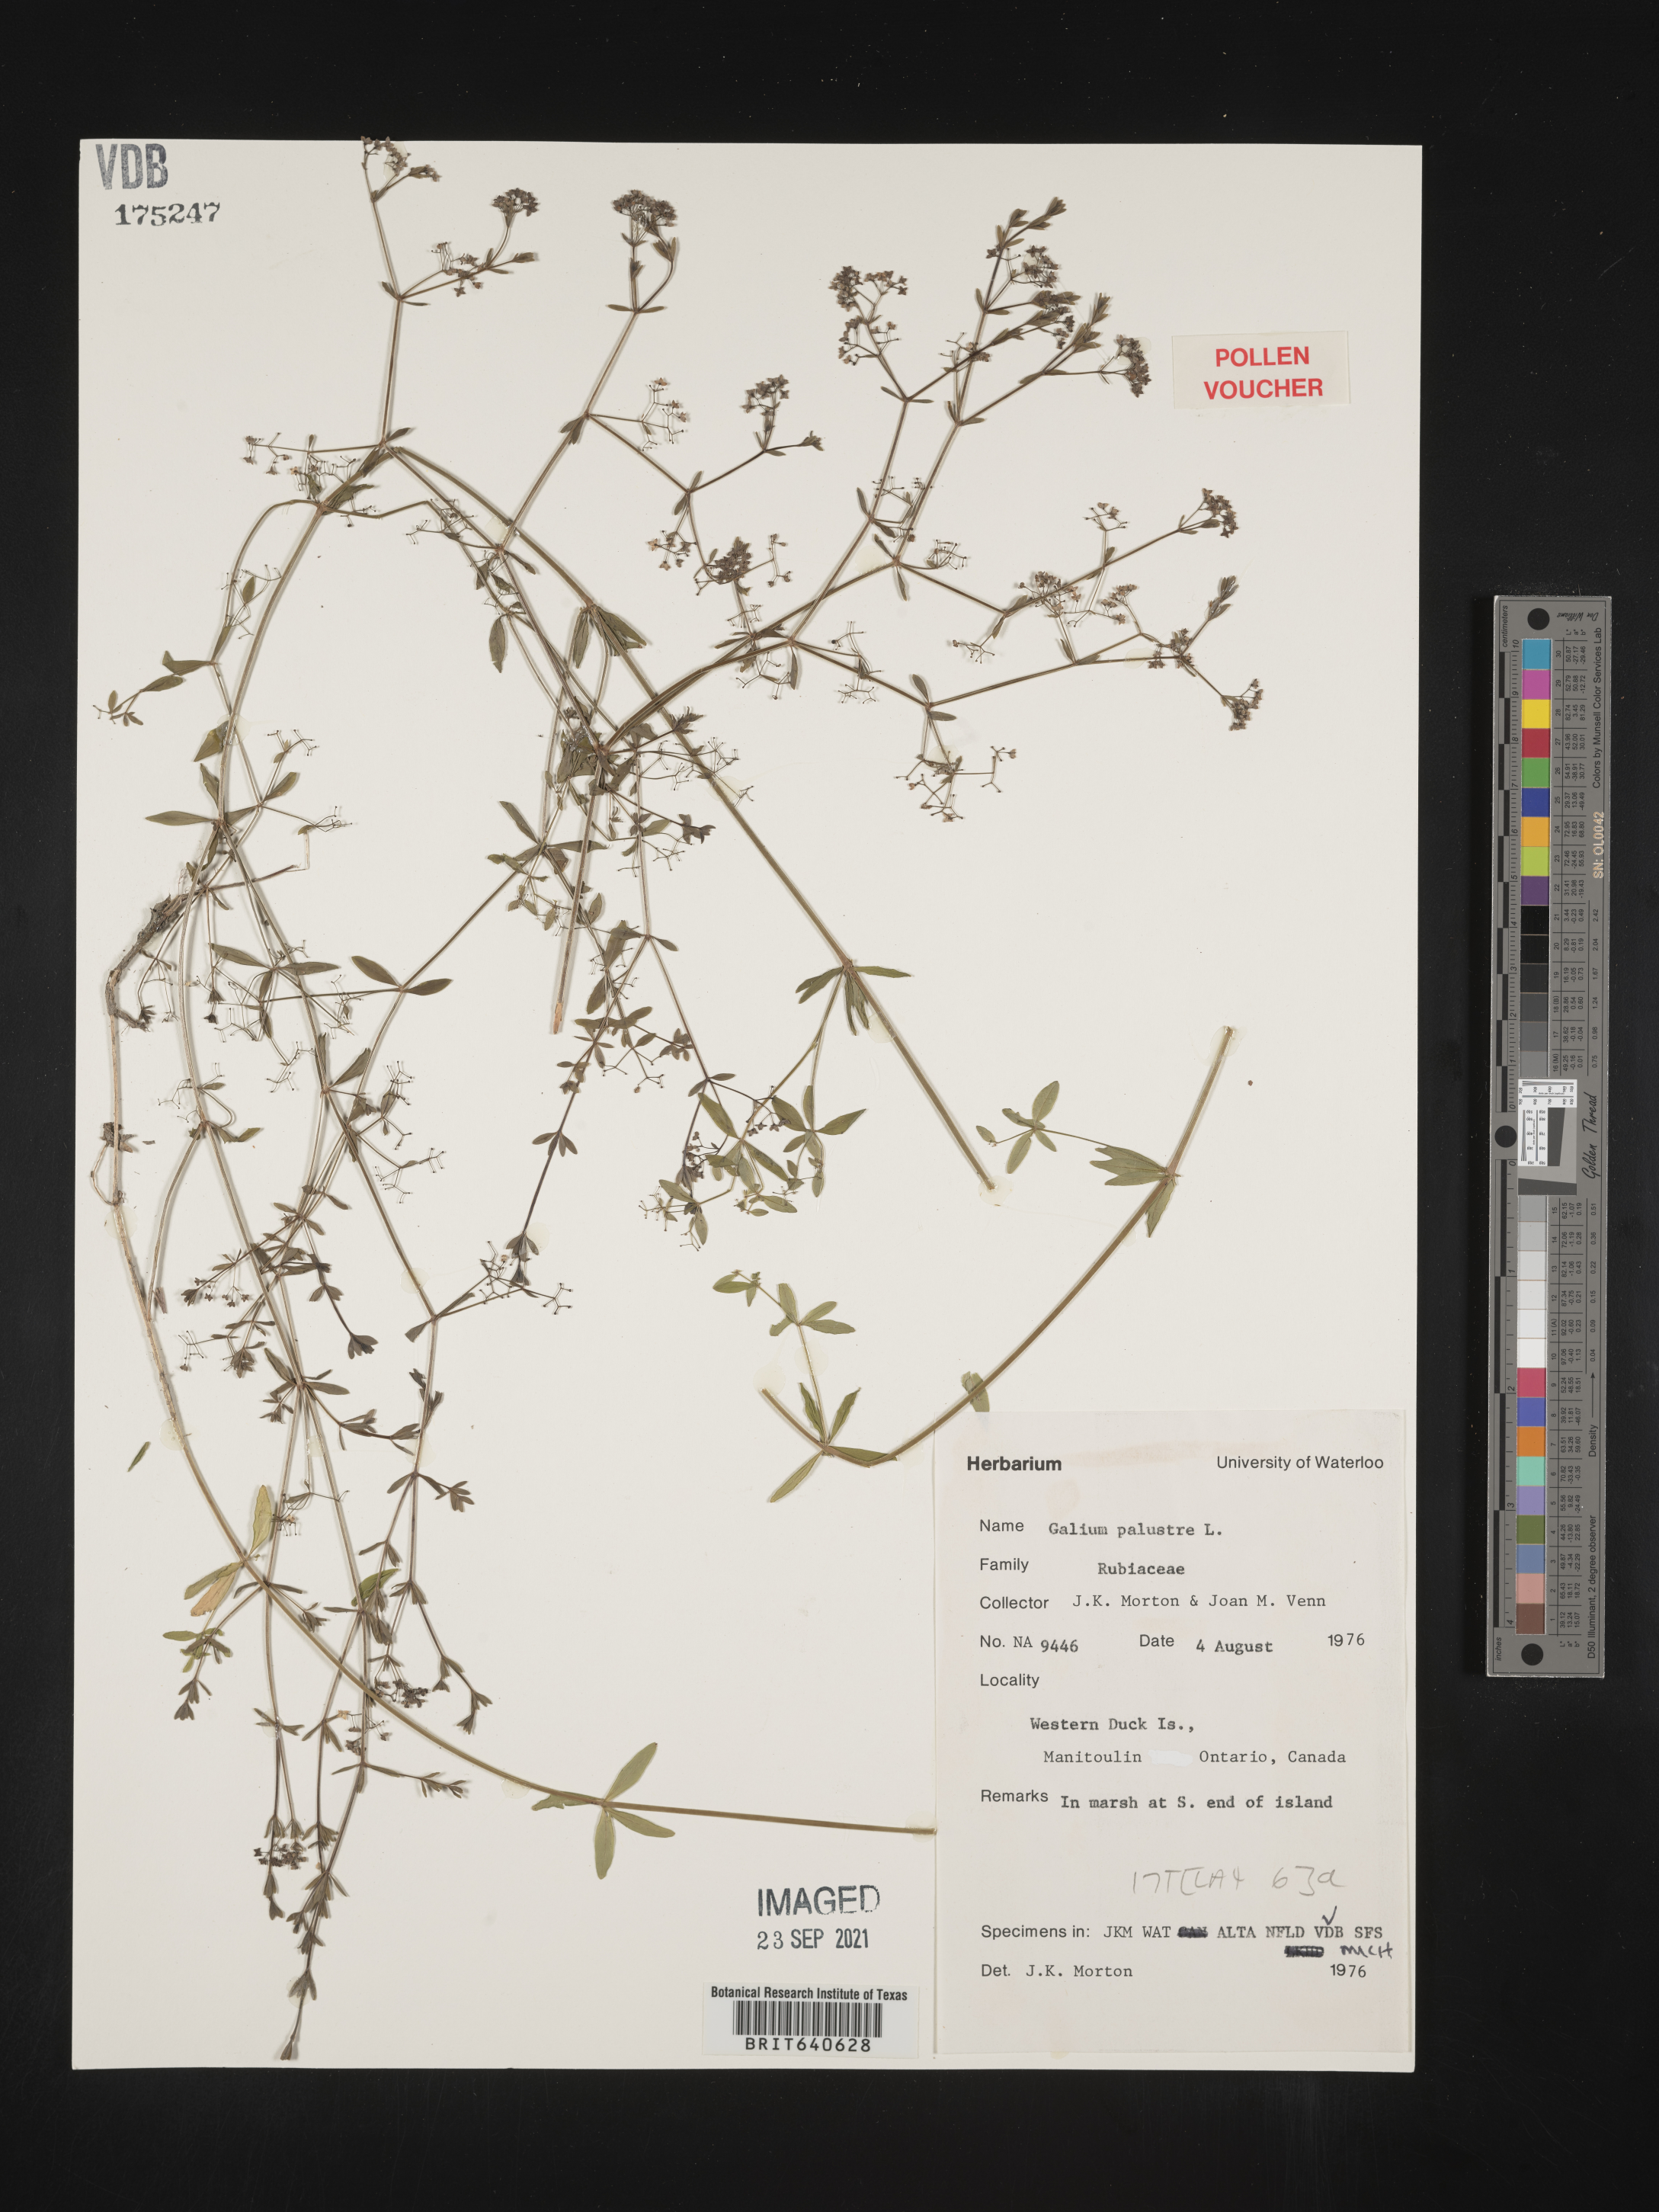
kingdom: Plantae
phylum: Tracheophyta
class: Magnoliopsida
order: Gentianales
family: Rubiaceae
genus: Galium
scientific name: Galium
